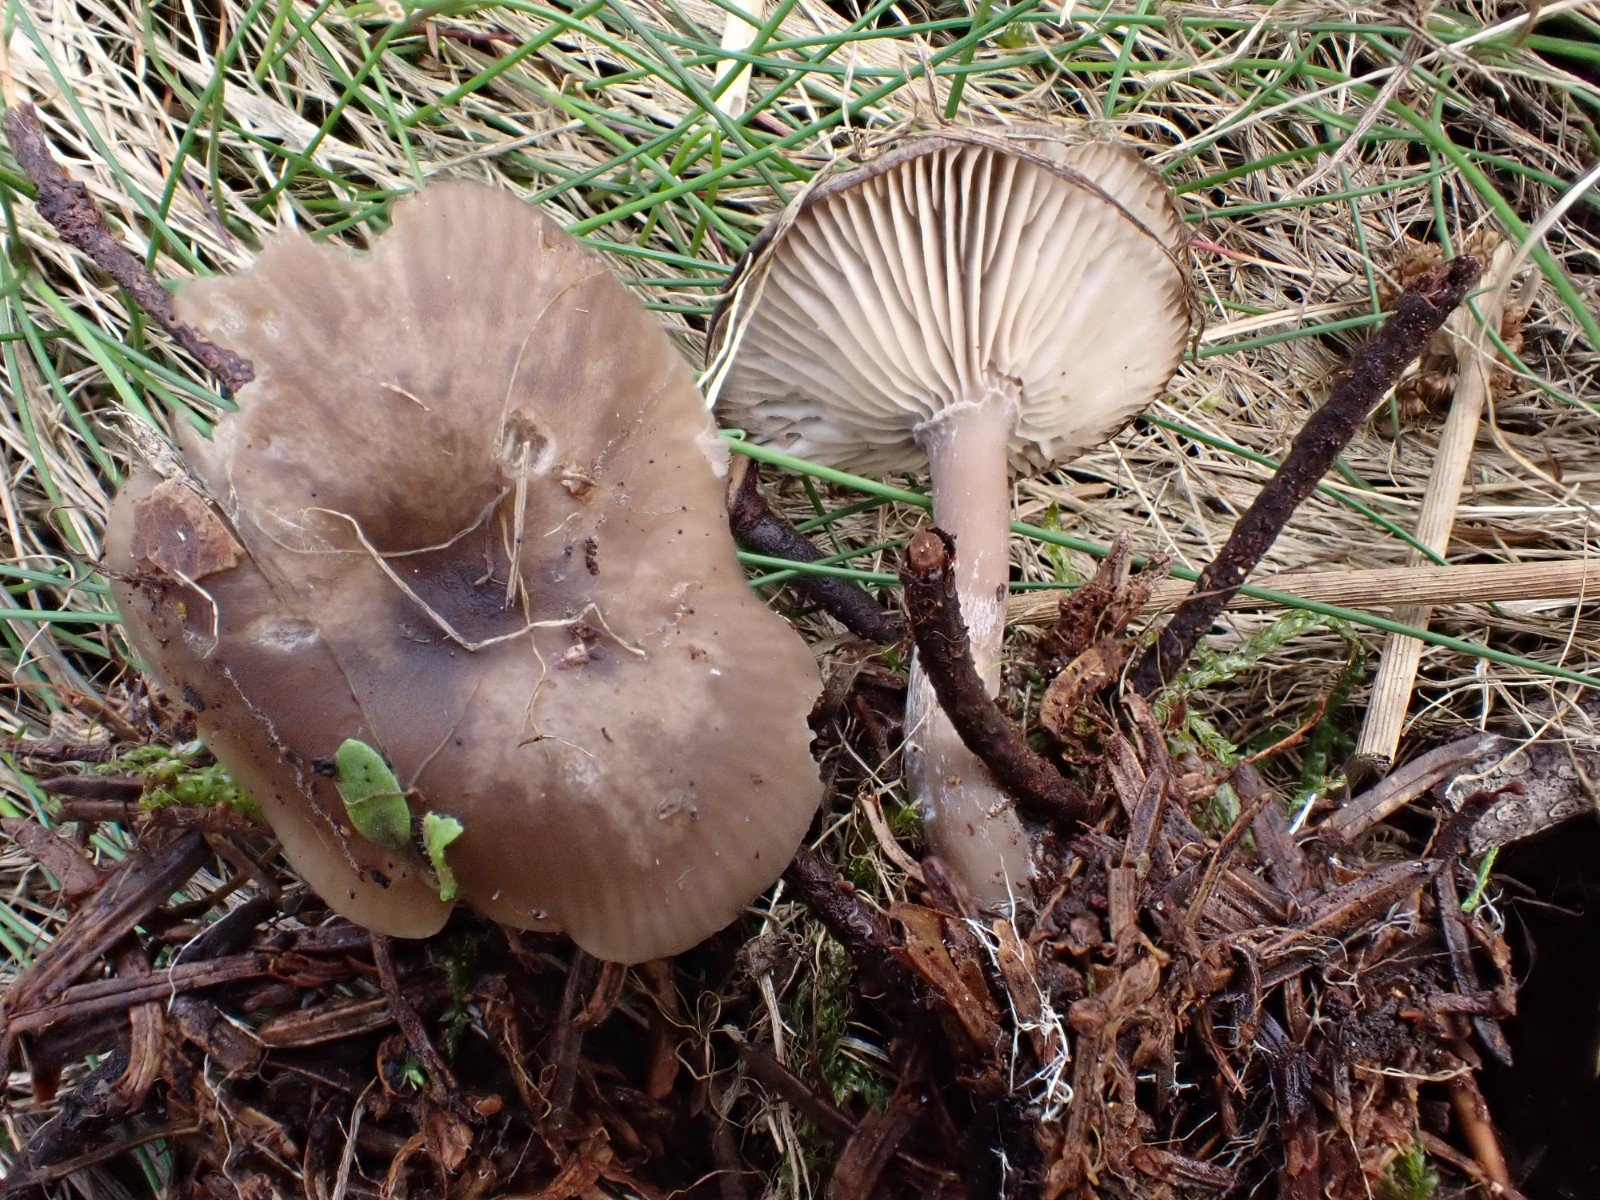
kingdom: Fungi
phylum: Basidiomycota
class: Agaricomycetes
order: Agaricales
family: Pseudoclitocybaceae
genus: Pseudoclitocybe
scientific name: Pseudoclitocybe cyathiformis
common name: almindelig bægertragthat
